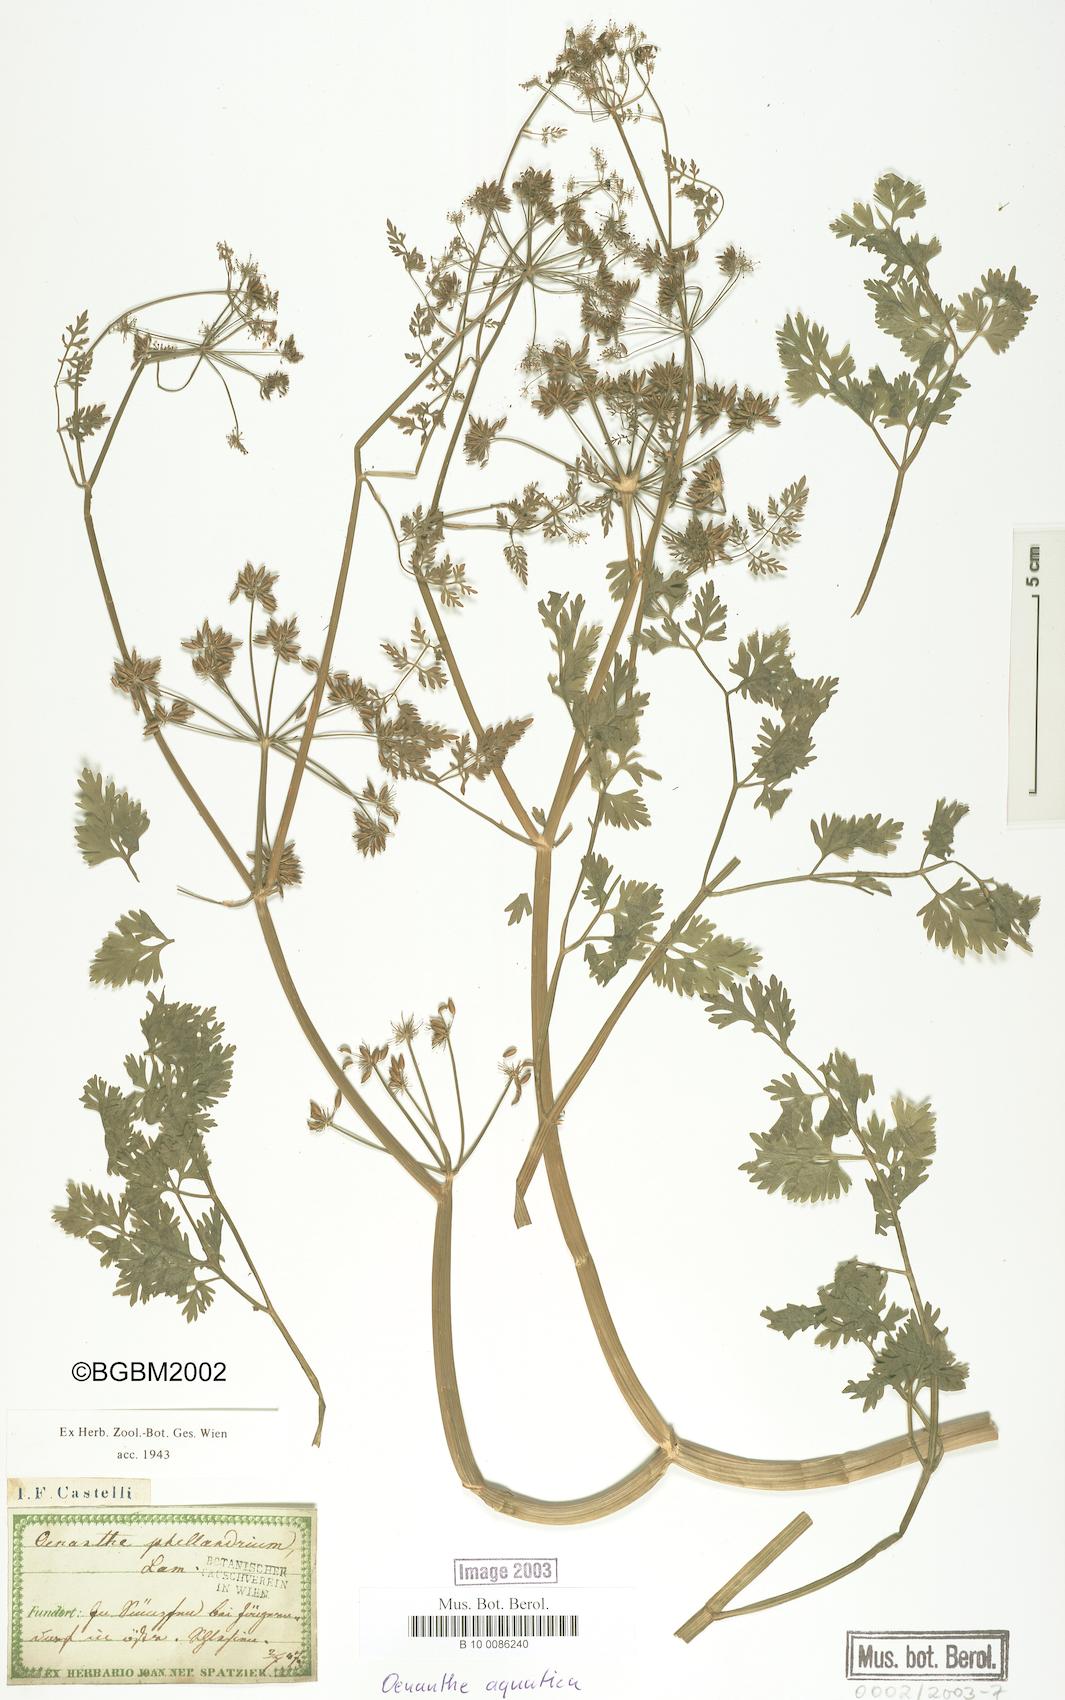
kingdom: Plantae
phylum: Tracheophyta
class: Magnoliopsida
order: Apiales
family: Apiaceae
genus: Oenanthe
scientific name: Oenanthe aquatica
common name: Fine-leaved water-dropwort
